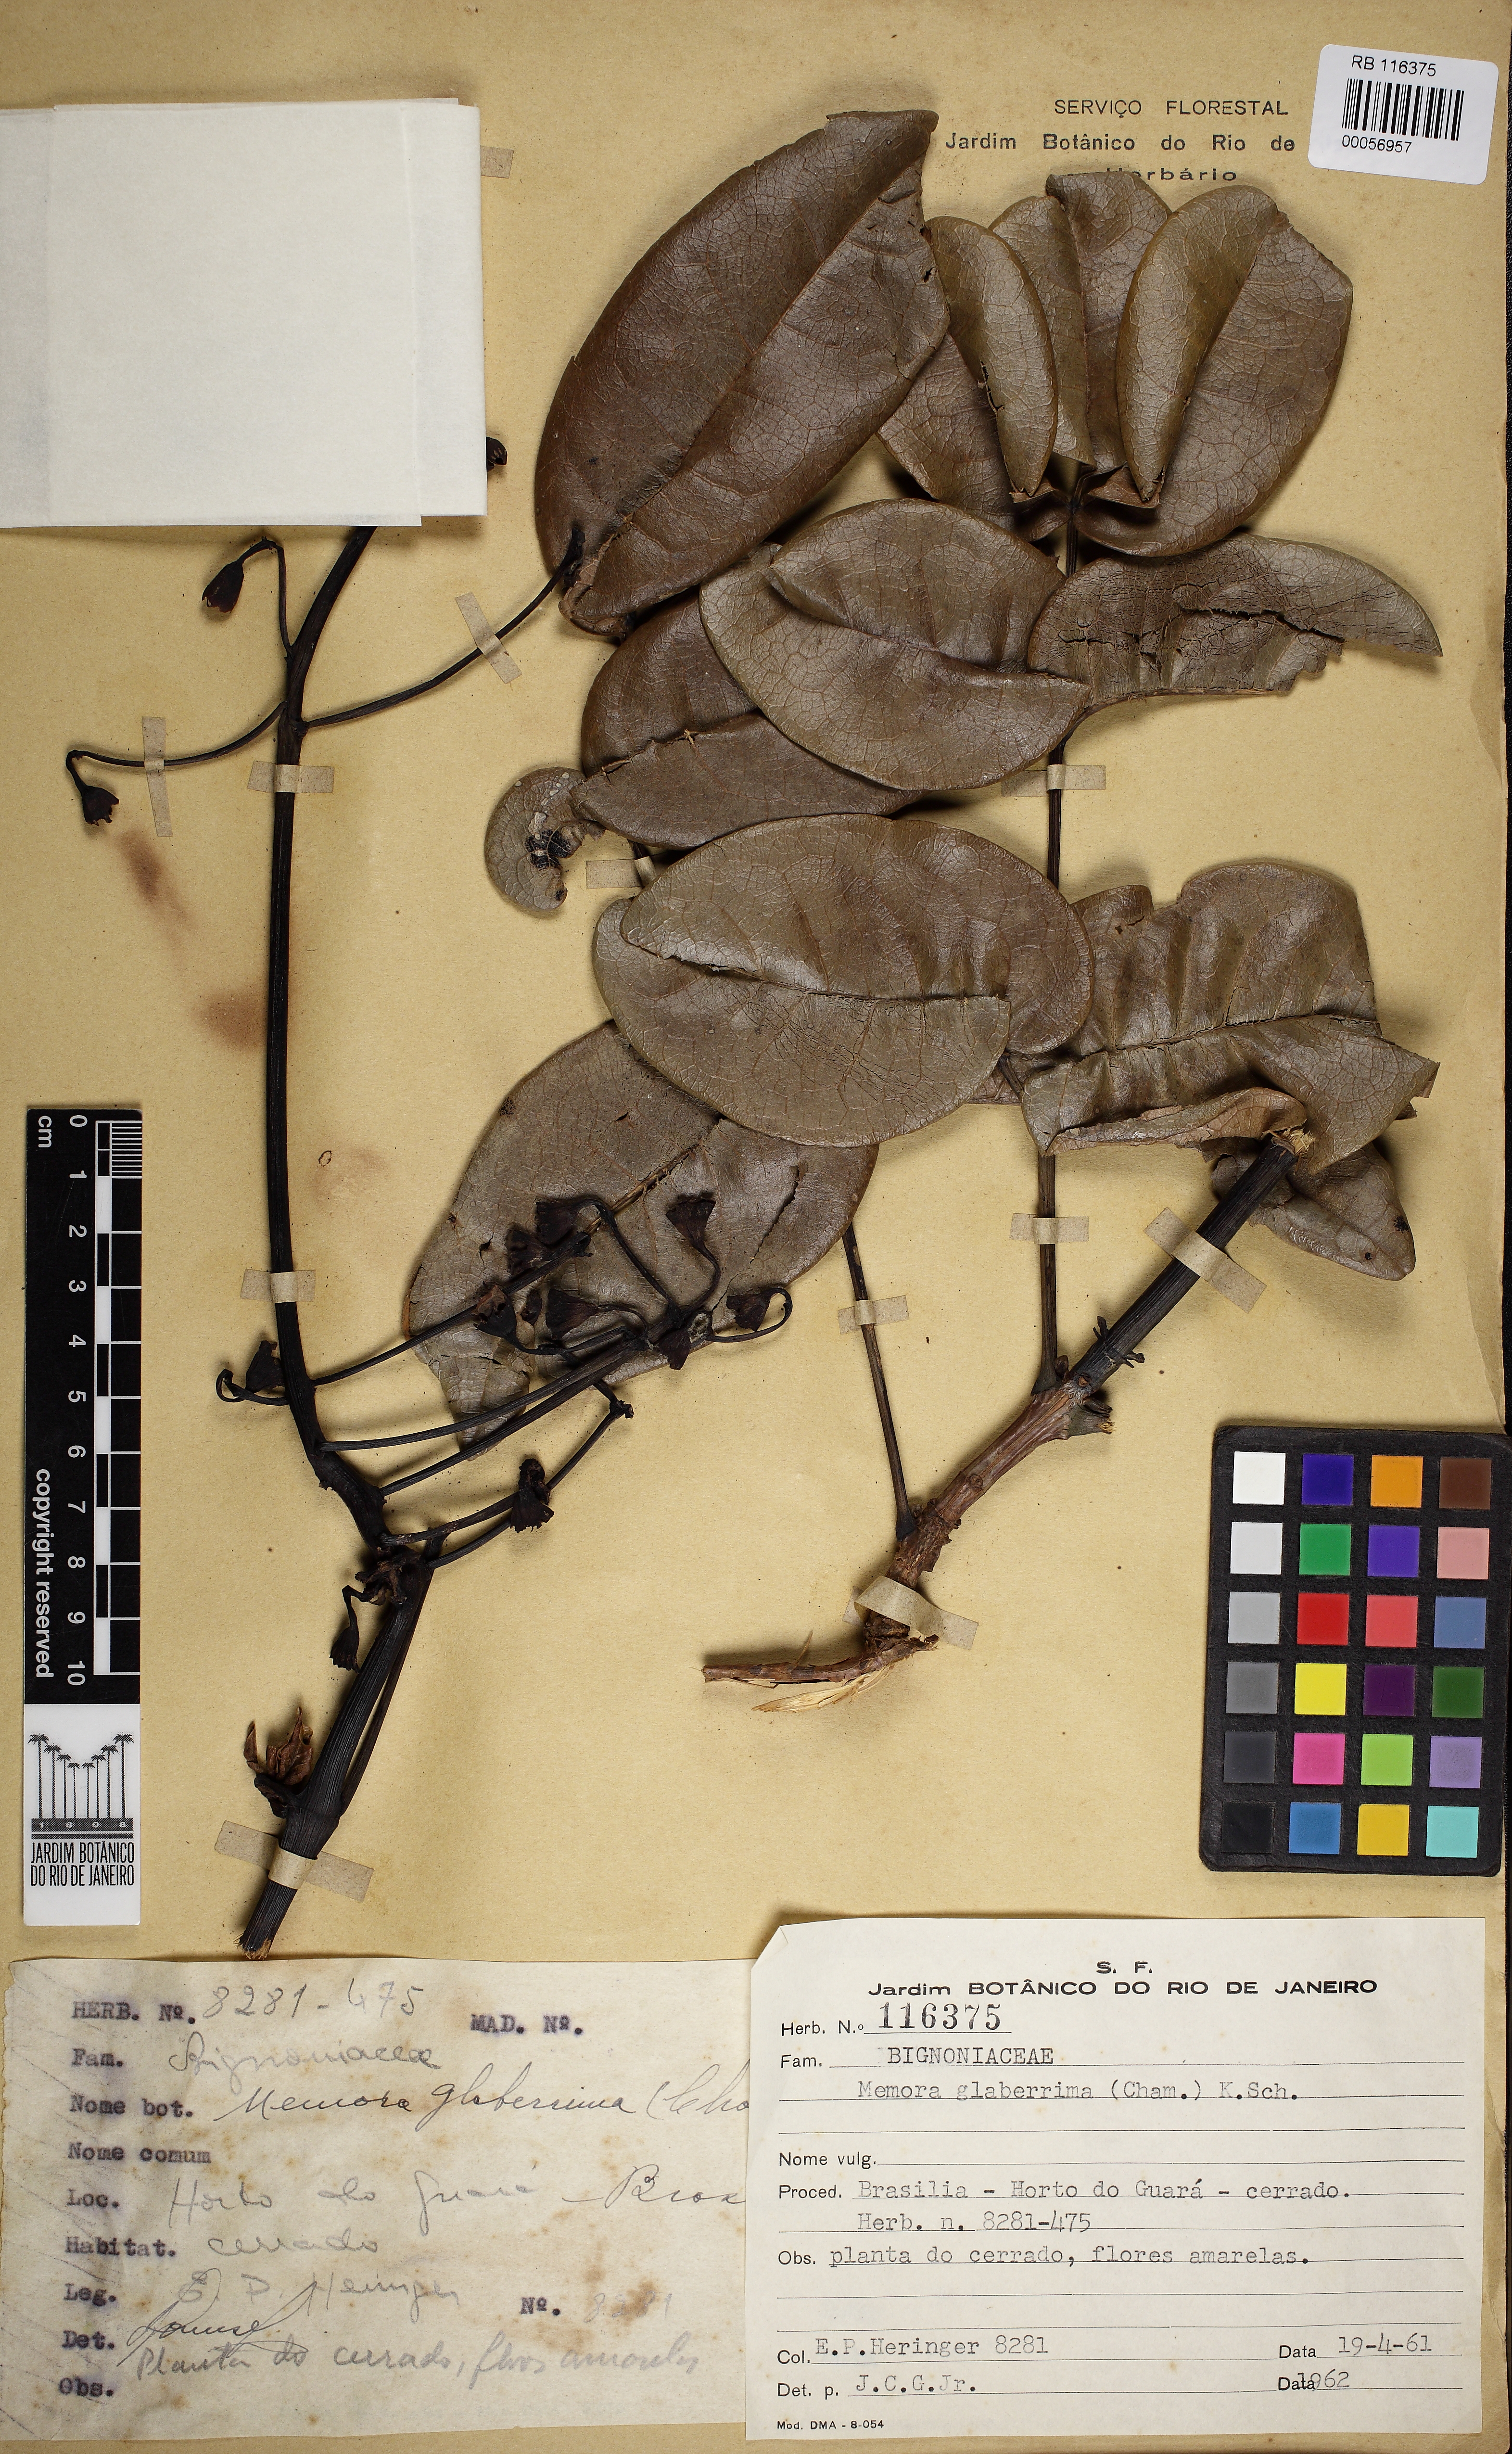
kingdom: Plantae
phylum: Tracheophyta
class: Magnoliopsida
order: Lamiales
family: Bignoniaceae
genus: Adenocalymma
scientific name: Adenocalymma pedunculatum
